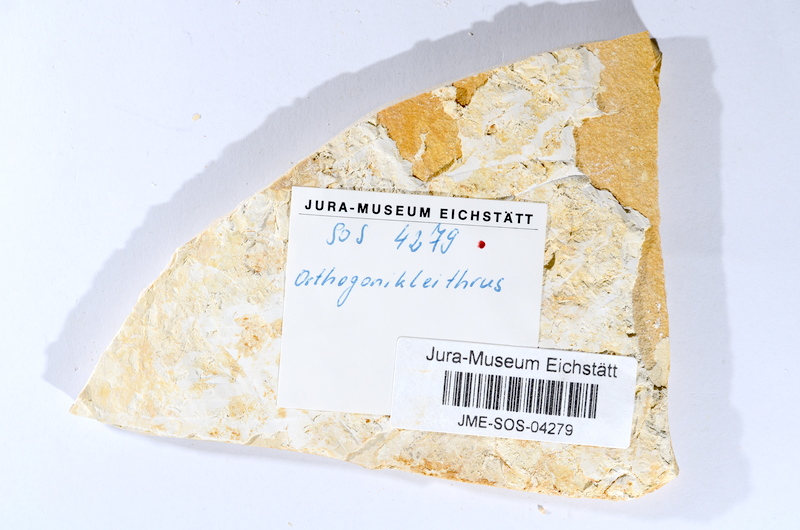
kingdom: Animalia
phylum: Chordata
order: Salmoniformes
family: Orthogonikleithridae
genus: Orthogonikleithrus
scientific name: Orthogonikleithrus hoelli
